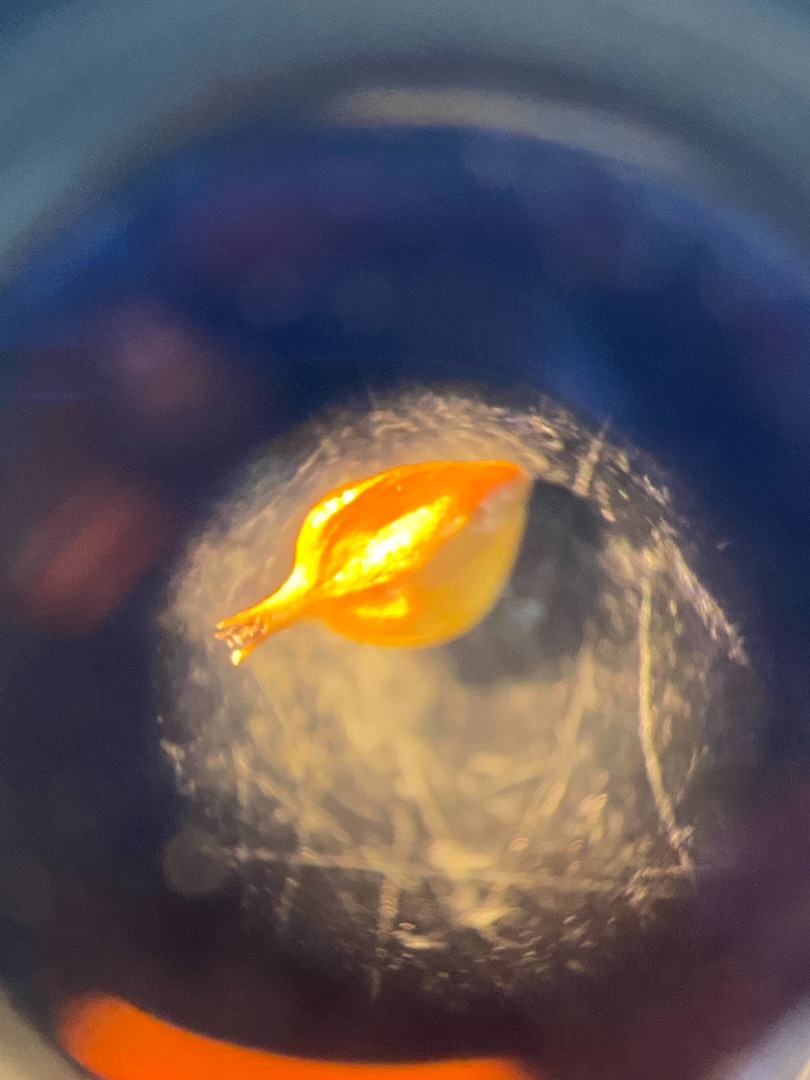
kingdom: Plantae
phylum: Tracheophyta
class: Liliopsida
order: Poales
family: Cyperaceae
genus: Carex
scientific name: Carex distans
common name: Fjernakset star
